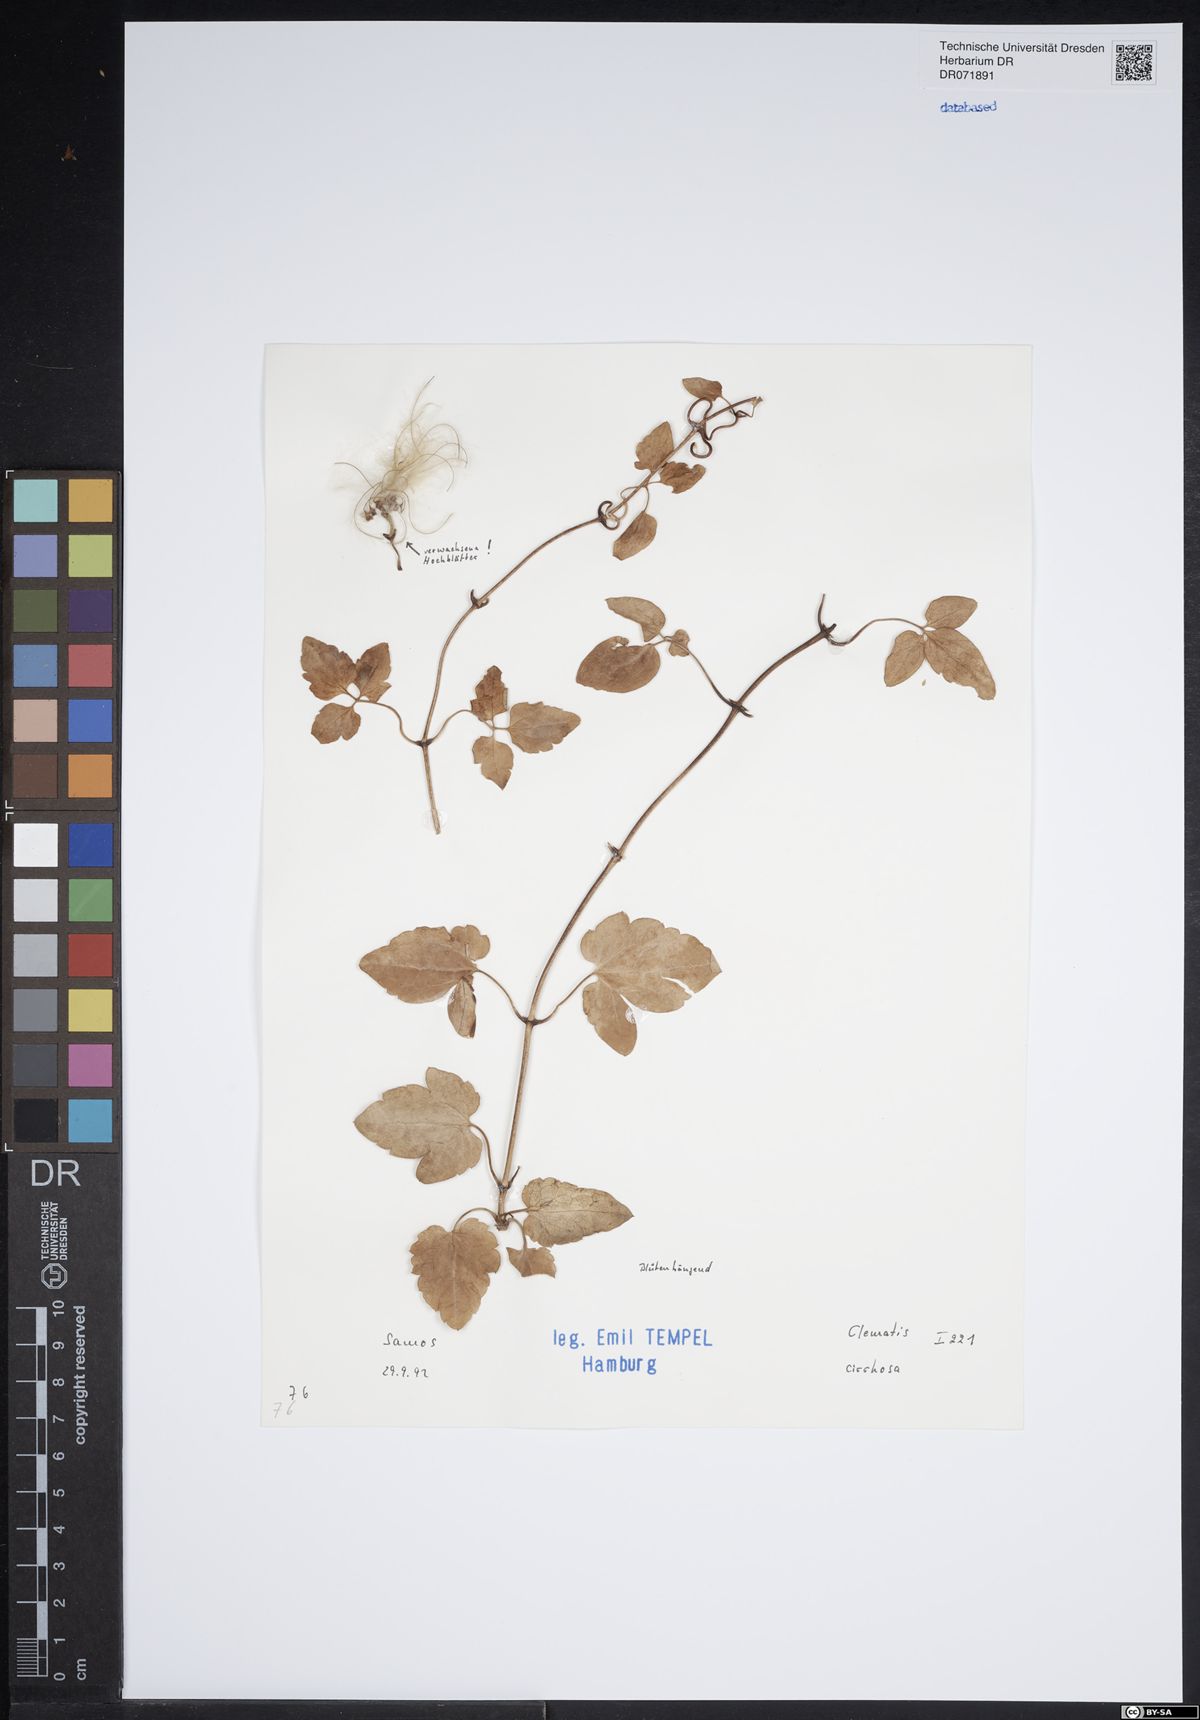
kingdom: Plantae
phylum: Tracheophyta
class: Magnoliopsida
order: Ranunculales
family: Ranunculaceae
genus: Clematis
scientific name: Clematis cirrhosa
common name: Early virgin's-bower
